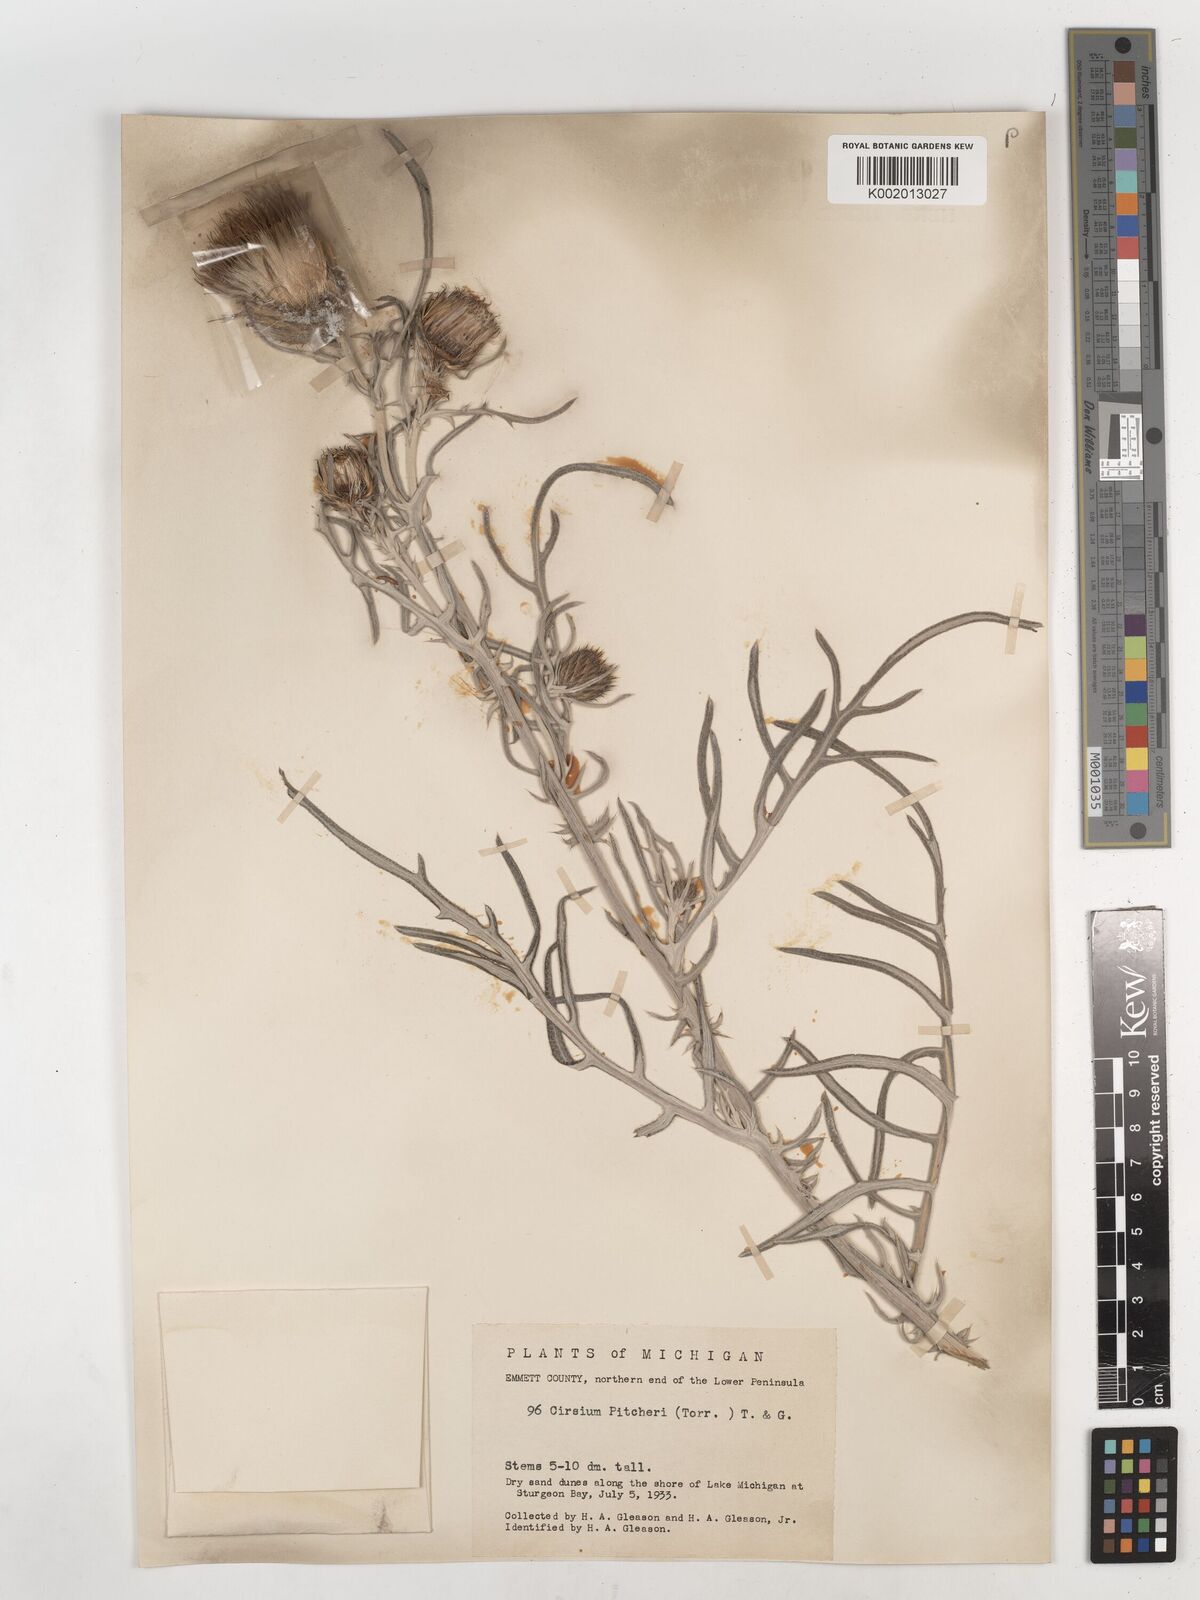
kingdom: Plantae
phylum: Tracheophyta
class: Magnoliopsida
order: Asterales
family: Asteraceae
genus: Cirsium
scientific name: Cirsium pitcheri
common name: Dune thistle
